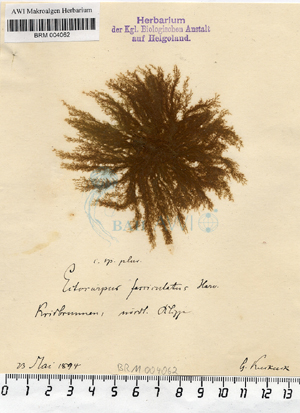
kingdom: Chromista
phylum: Ochrophyta
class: Phaeophyceae
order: Ectocarpales
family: Ectocarpaceae
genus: Ectocarpus
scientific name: Ectocarpus fasciculatus
